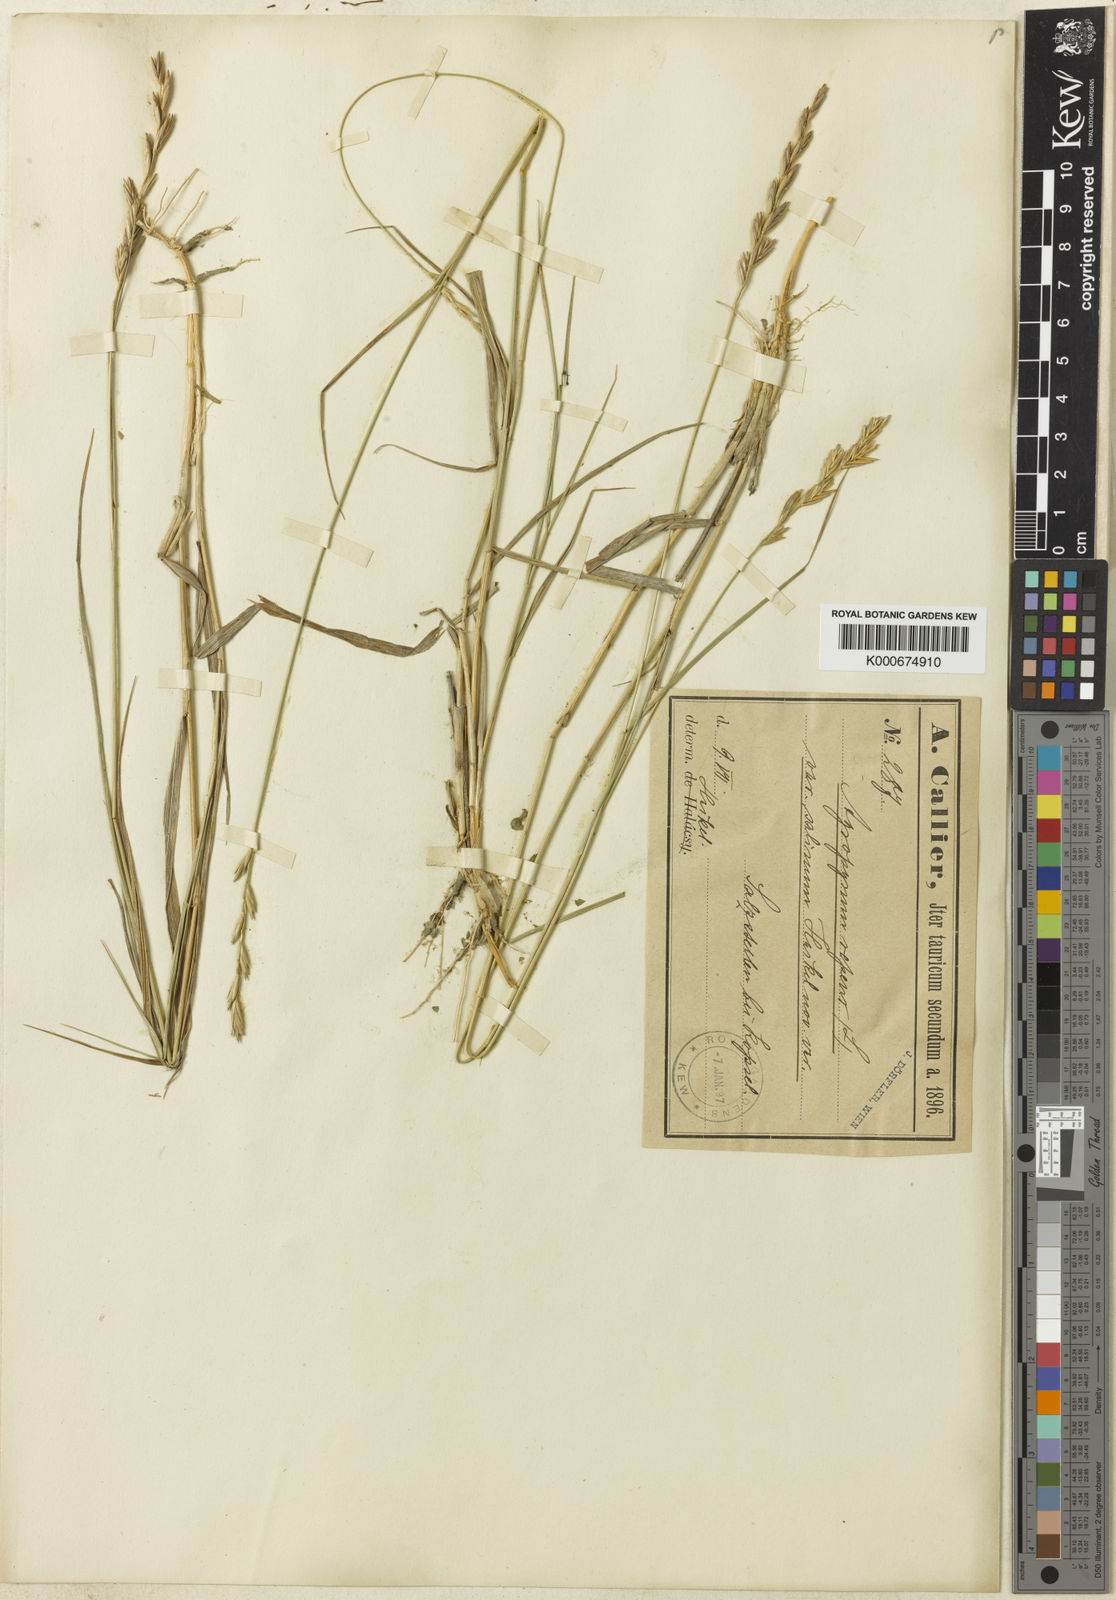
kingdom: Plantae
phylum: Tracheophyta
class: Liliopsida
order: Poales
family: Poaceae
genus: Elymus
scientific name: Elymus repens
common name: Quackgrass
